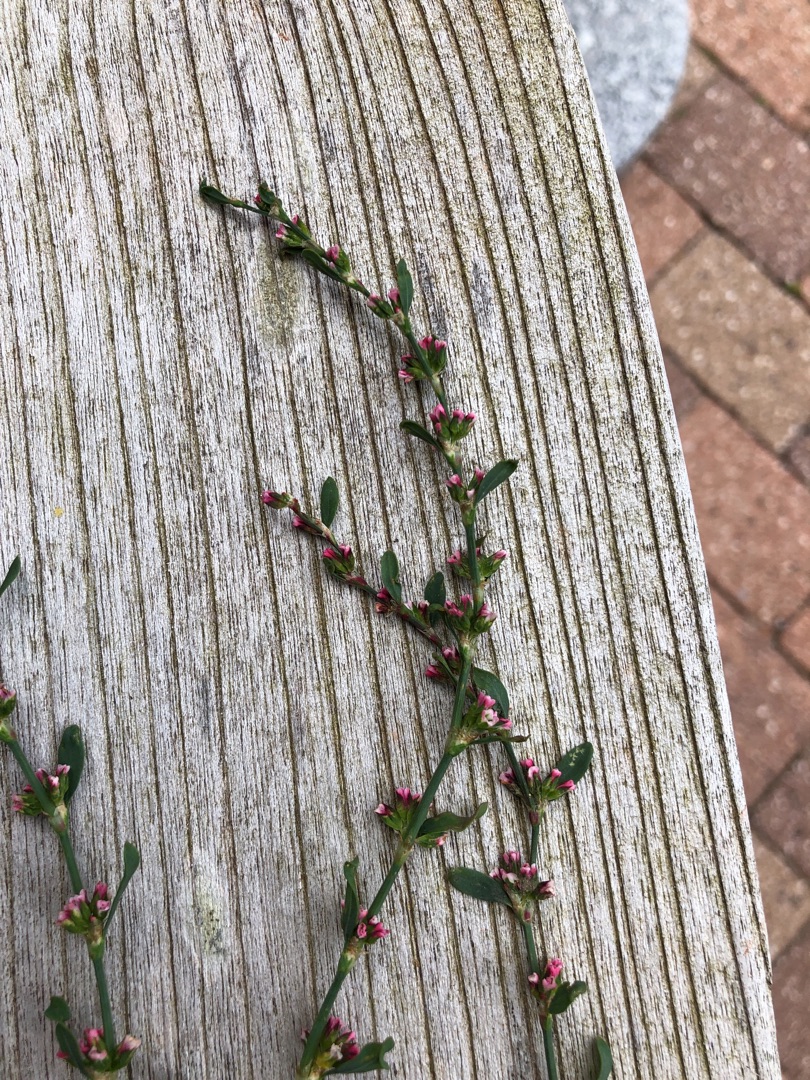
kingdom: Plantae
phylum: Tracheophyta
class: Magnoliopsida
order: Caryophyllales
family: Polygonaceae
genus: Polygonum
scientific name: Polygonum arenastrum
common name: Liggende vej-pileurt
